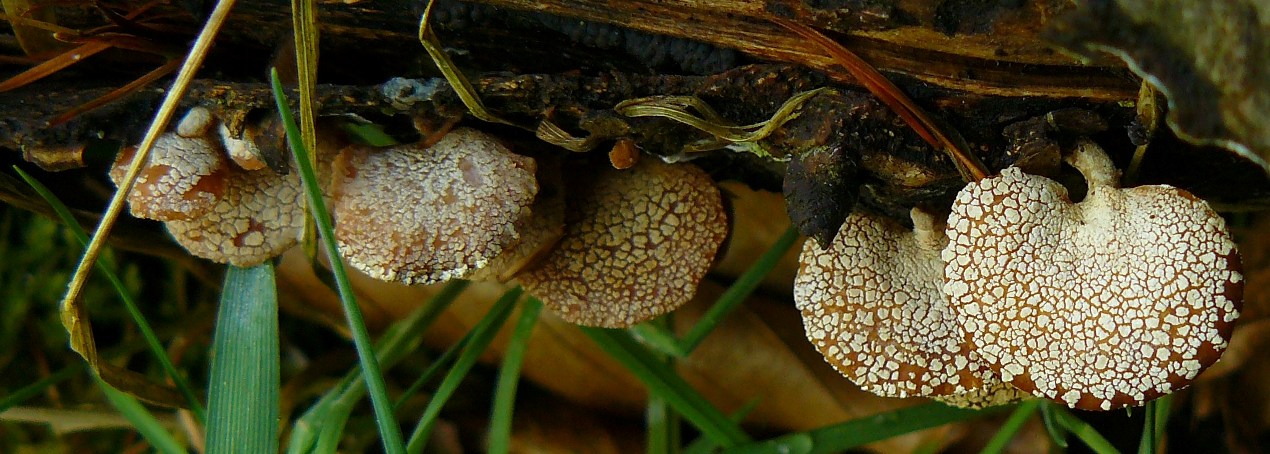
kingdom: Fungi
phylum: Basidiomycota
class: Agaricomycetes
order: Agaricales
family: Mycenaceae
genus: Panellus
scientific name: Panellus stipticus
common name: kliddet epaulethat
